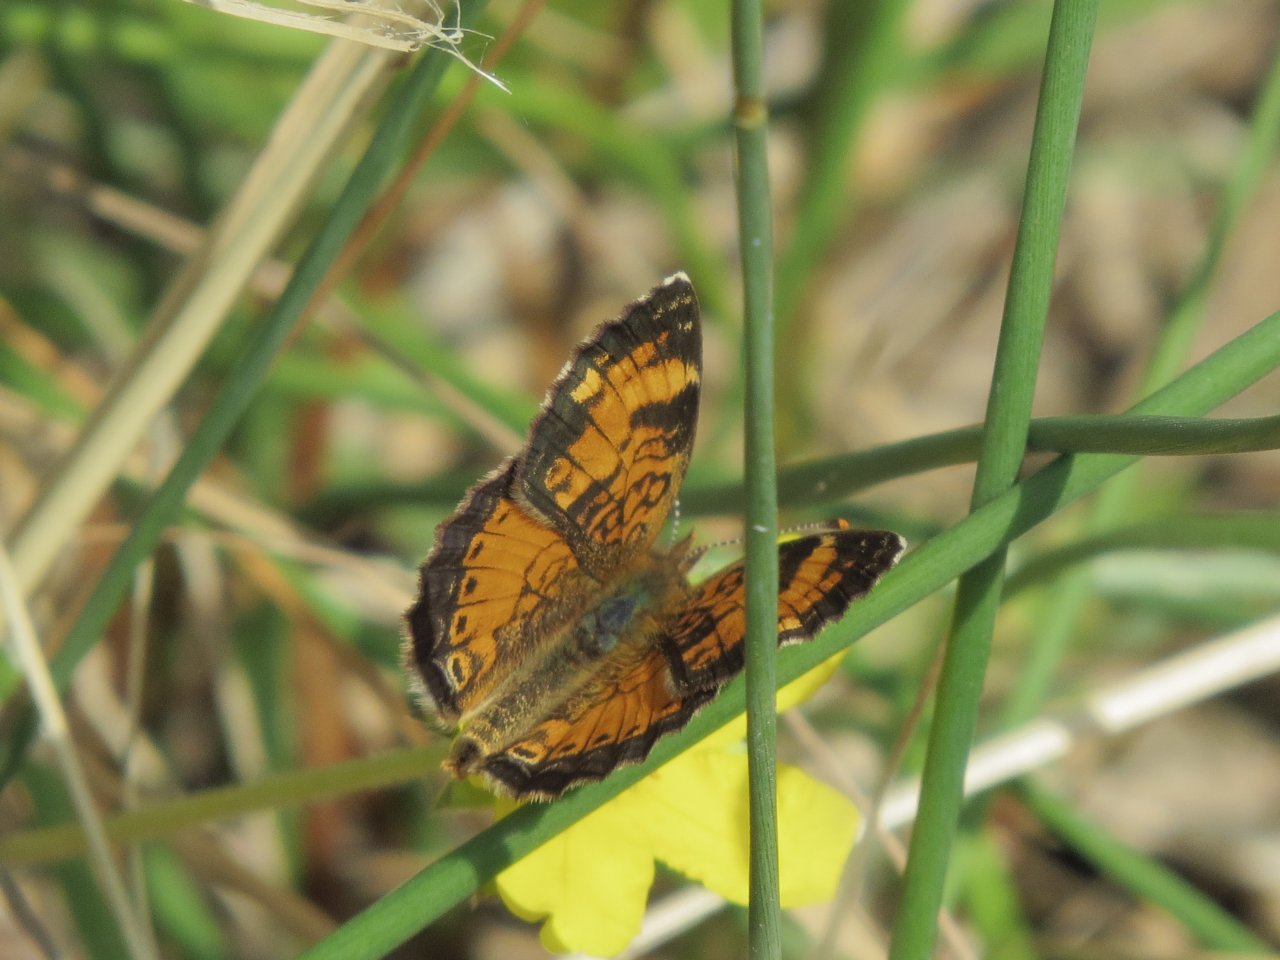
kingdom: Animalia
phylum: Arthropoda
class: Insecta
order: Lepidoptera
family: Nymphalidae
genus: Phyciodes
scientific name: Phyciodes tharos
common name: Northern Crescent
